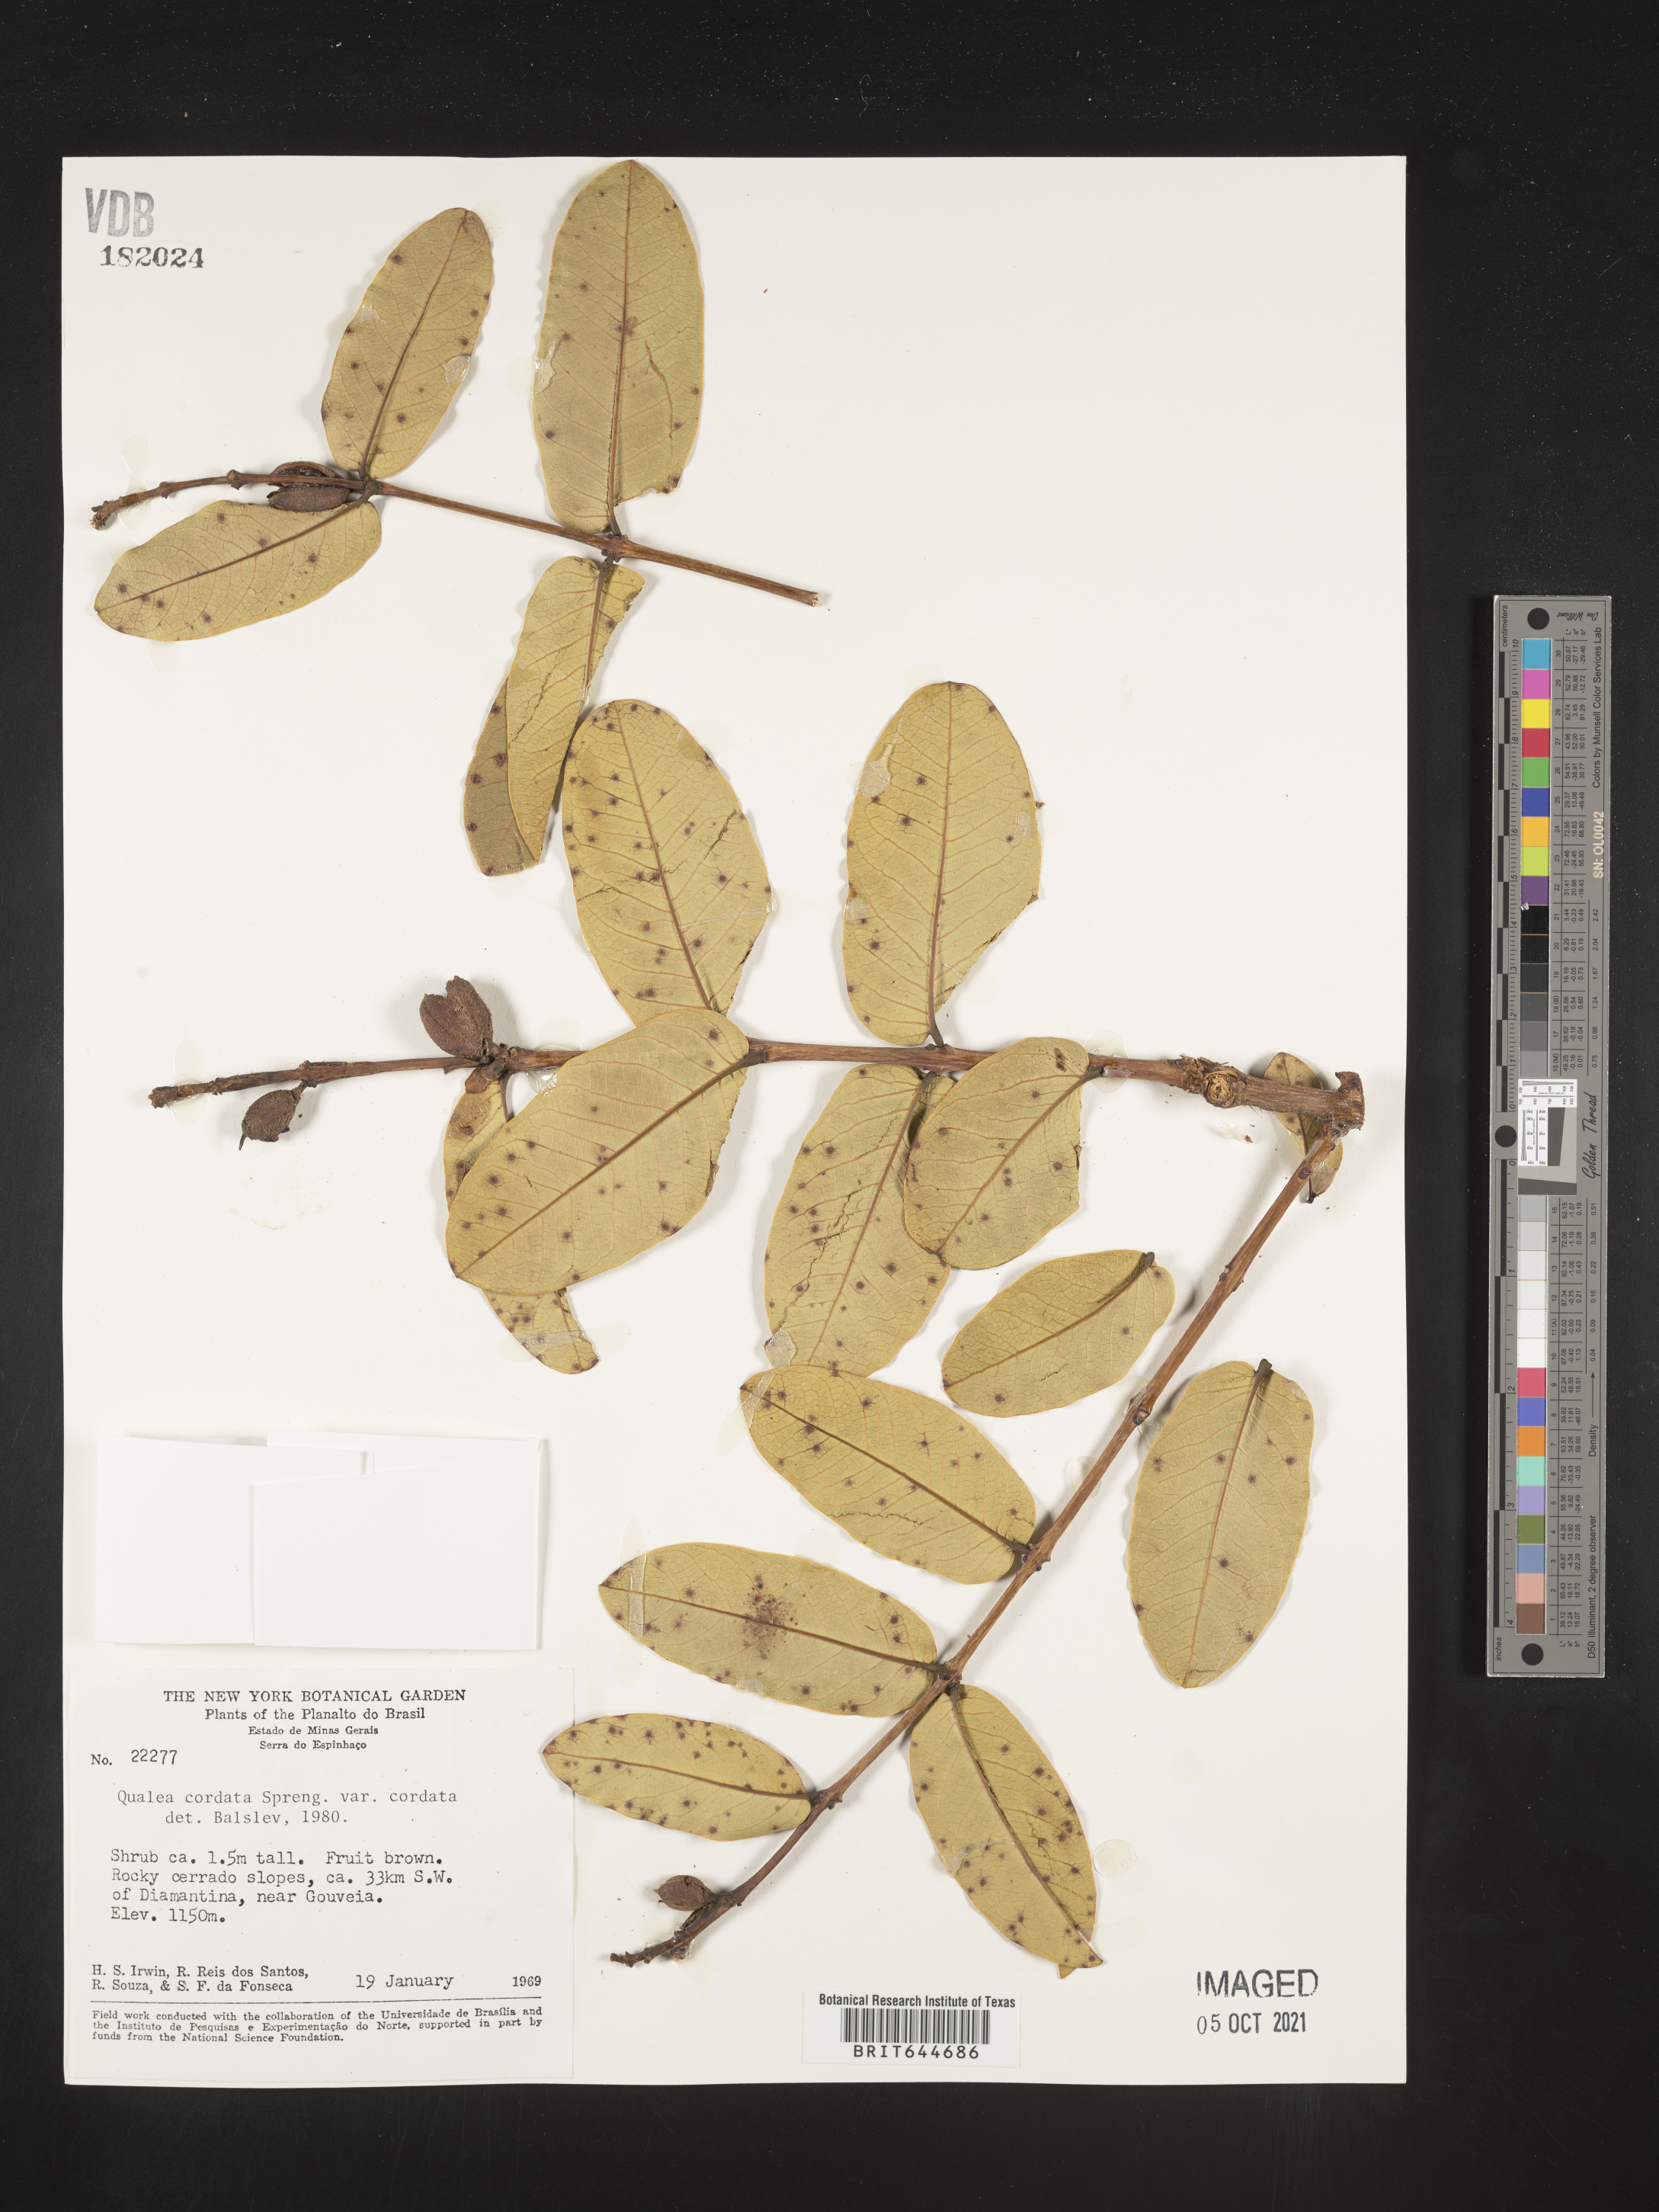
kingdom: Plantae
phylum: Tracheophyta
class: Magnoliopsida
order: Myrtales
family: Vochysiaceae
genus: Qualea
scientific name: Qualea
